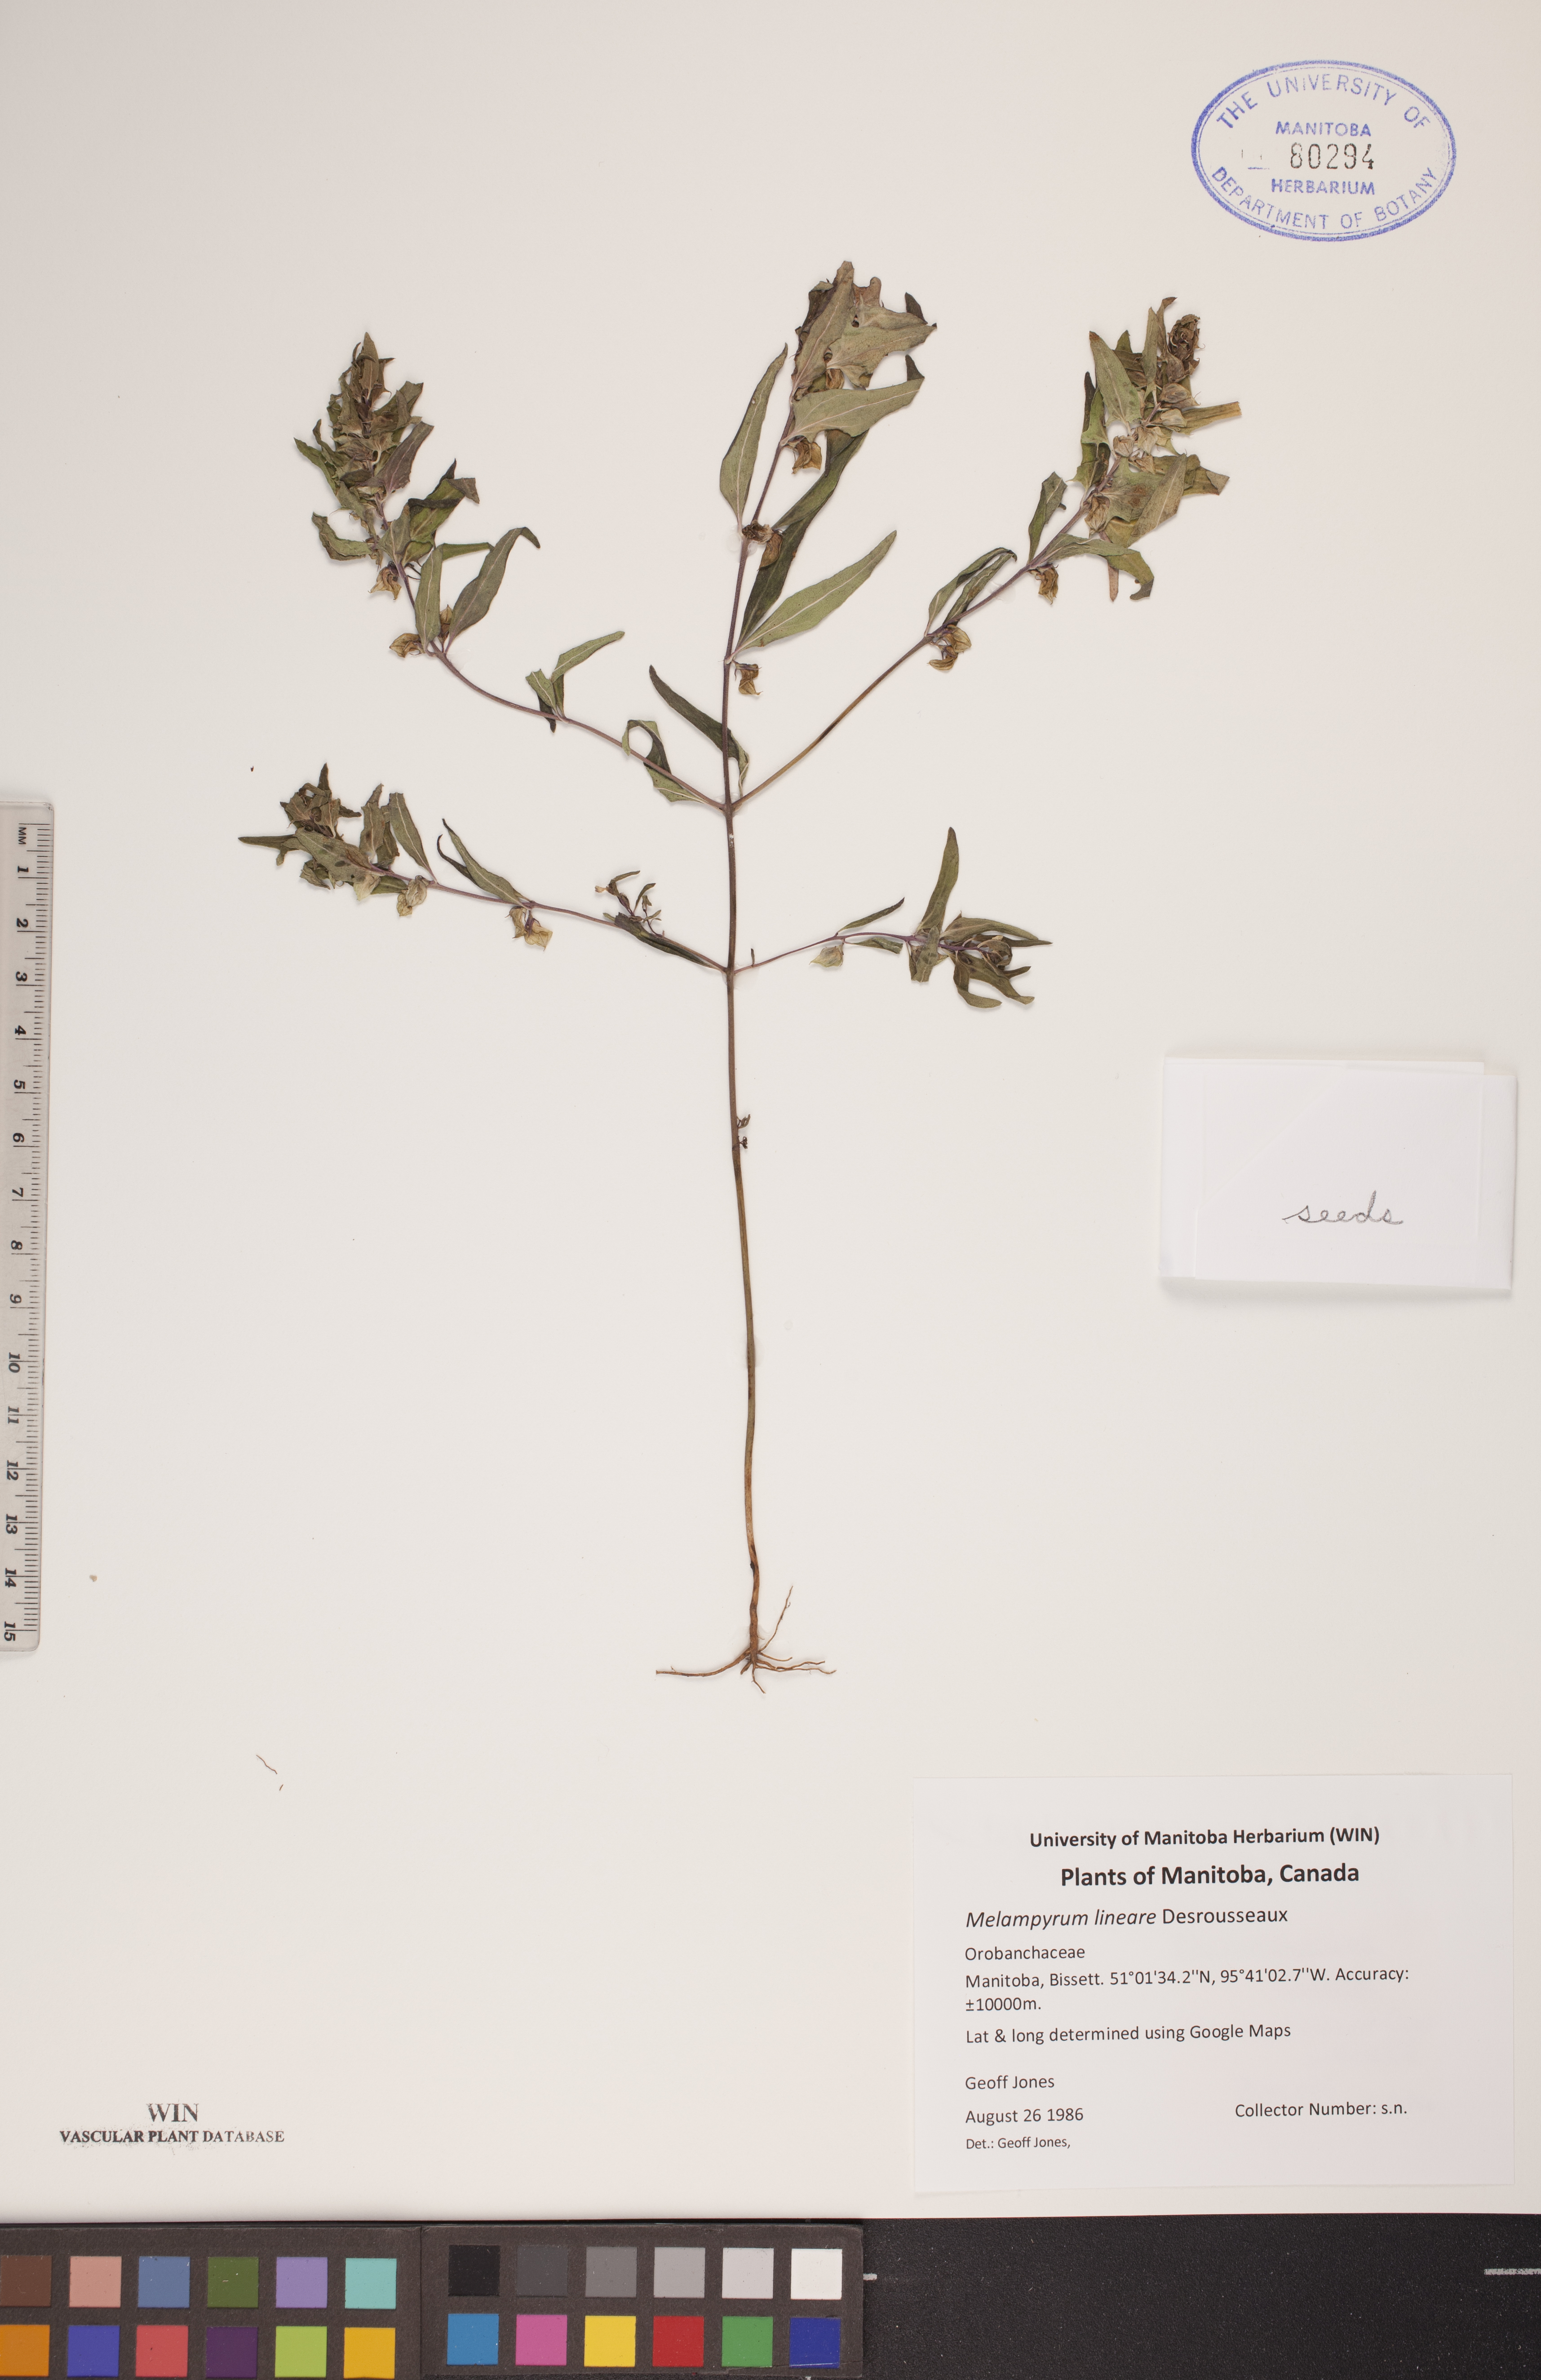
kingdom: Plantae
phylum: Tracheophyta
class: Magnoliopsida
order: Lamiales
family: Orobanchaceae
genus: Melampyrum
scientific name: Melampyrum lineare
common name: American cow-wheat
